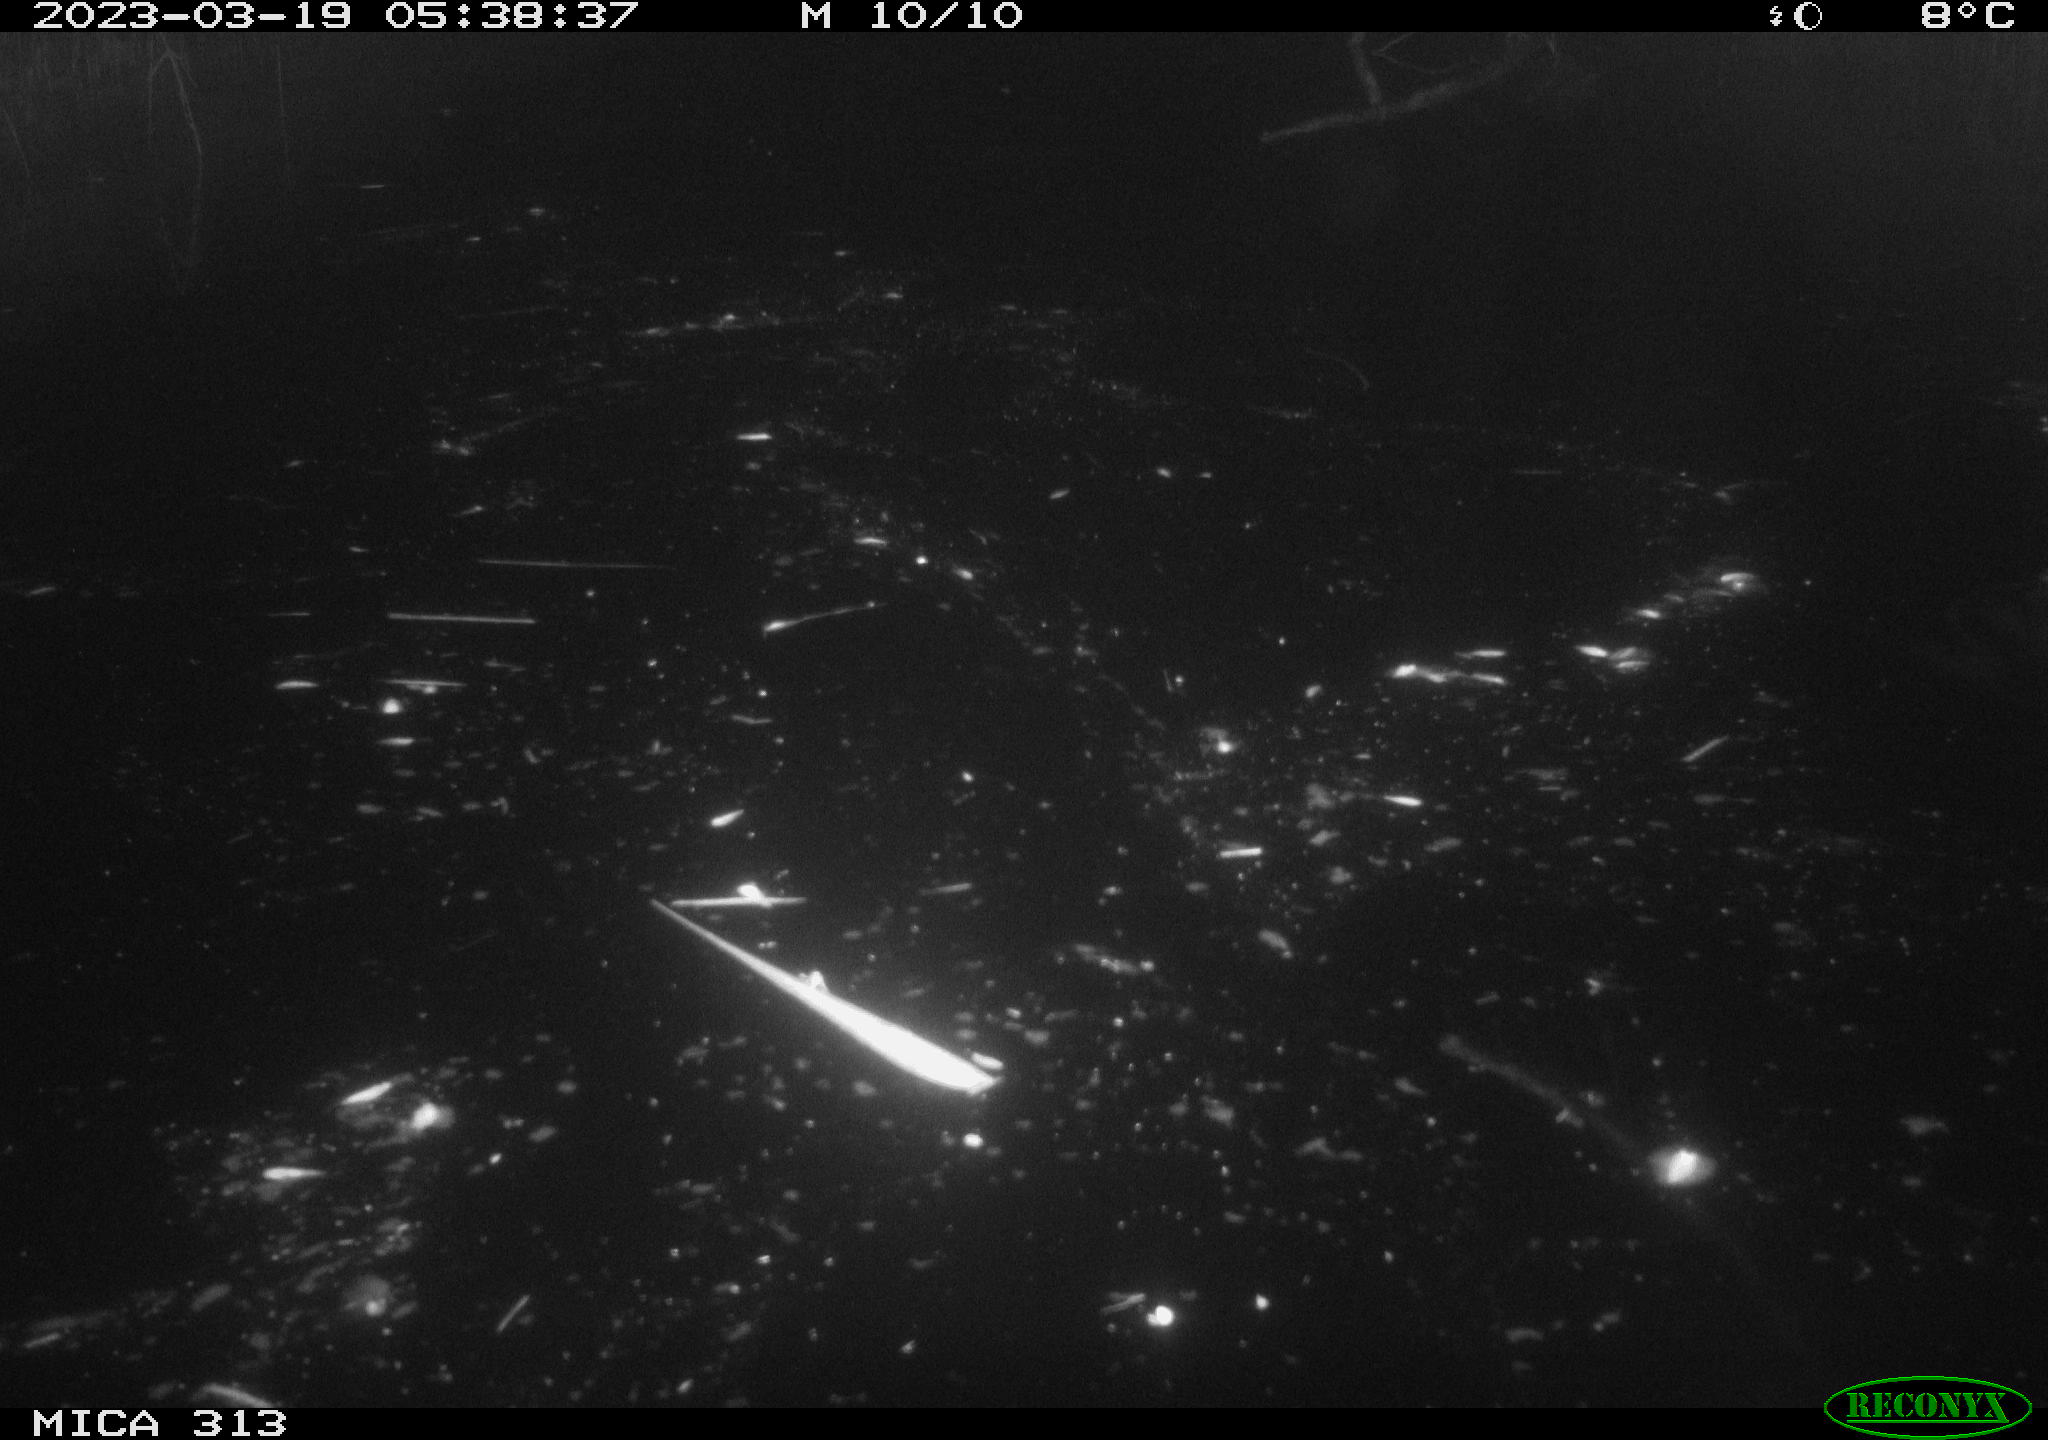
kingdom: Animalia
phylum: Chordata
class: Aves
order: Gruiformes
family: Rallidae
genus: Fulica
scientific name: Fulica atra
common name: Eurasian coot
